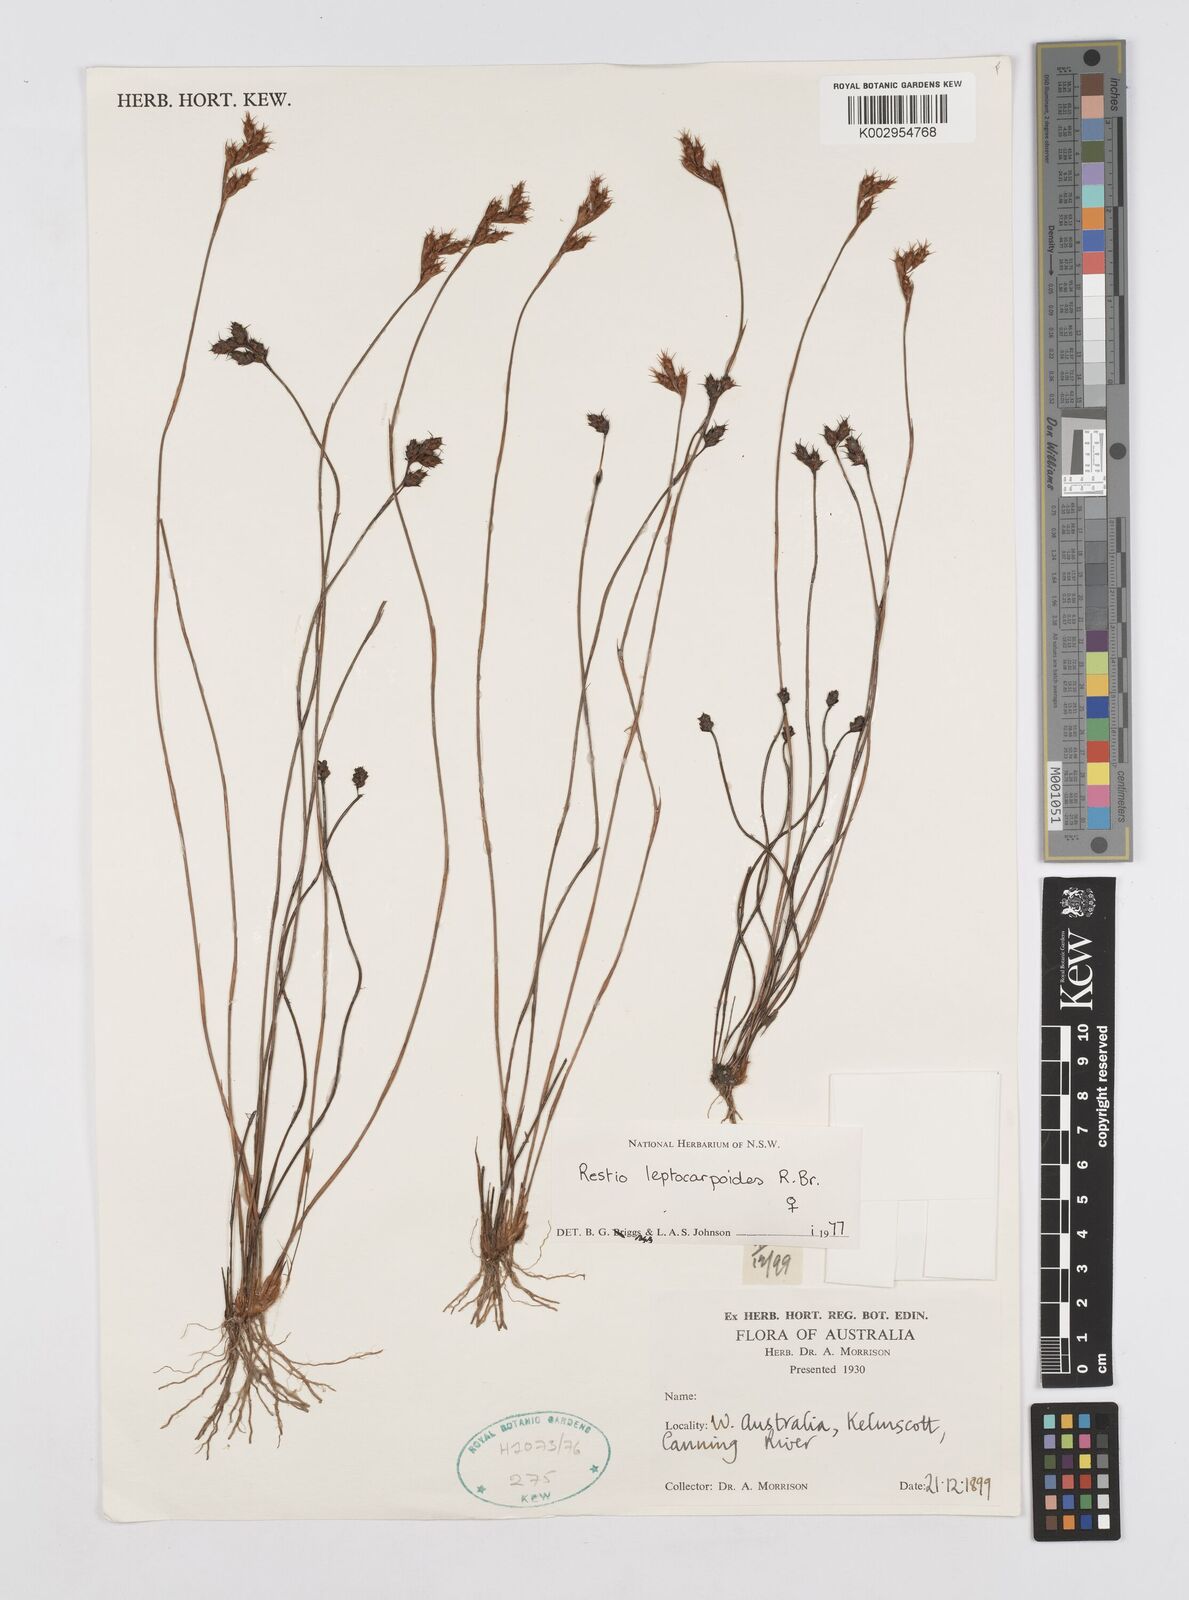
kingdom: Plantae
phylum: Tracheophyta
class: Liliopsida
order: Poales
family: Restionaceae
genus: Cytogonidium
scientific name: Cytogonidium leptocarpoides
